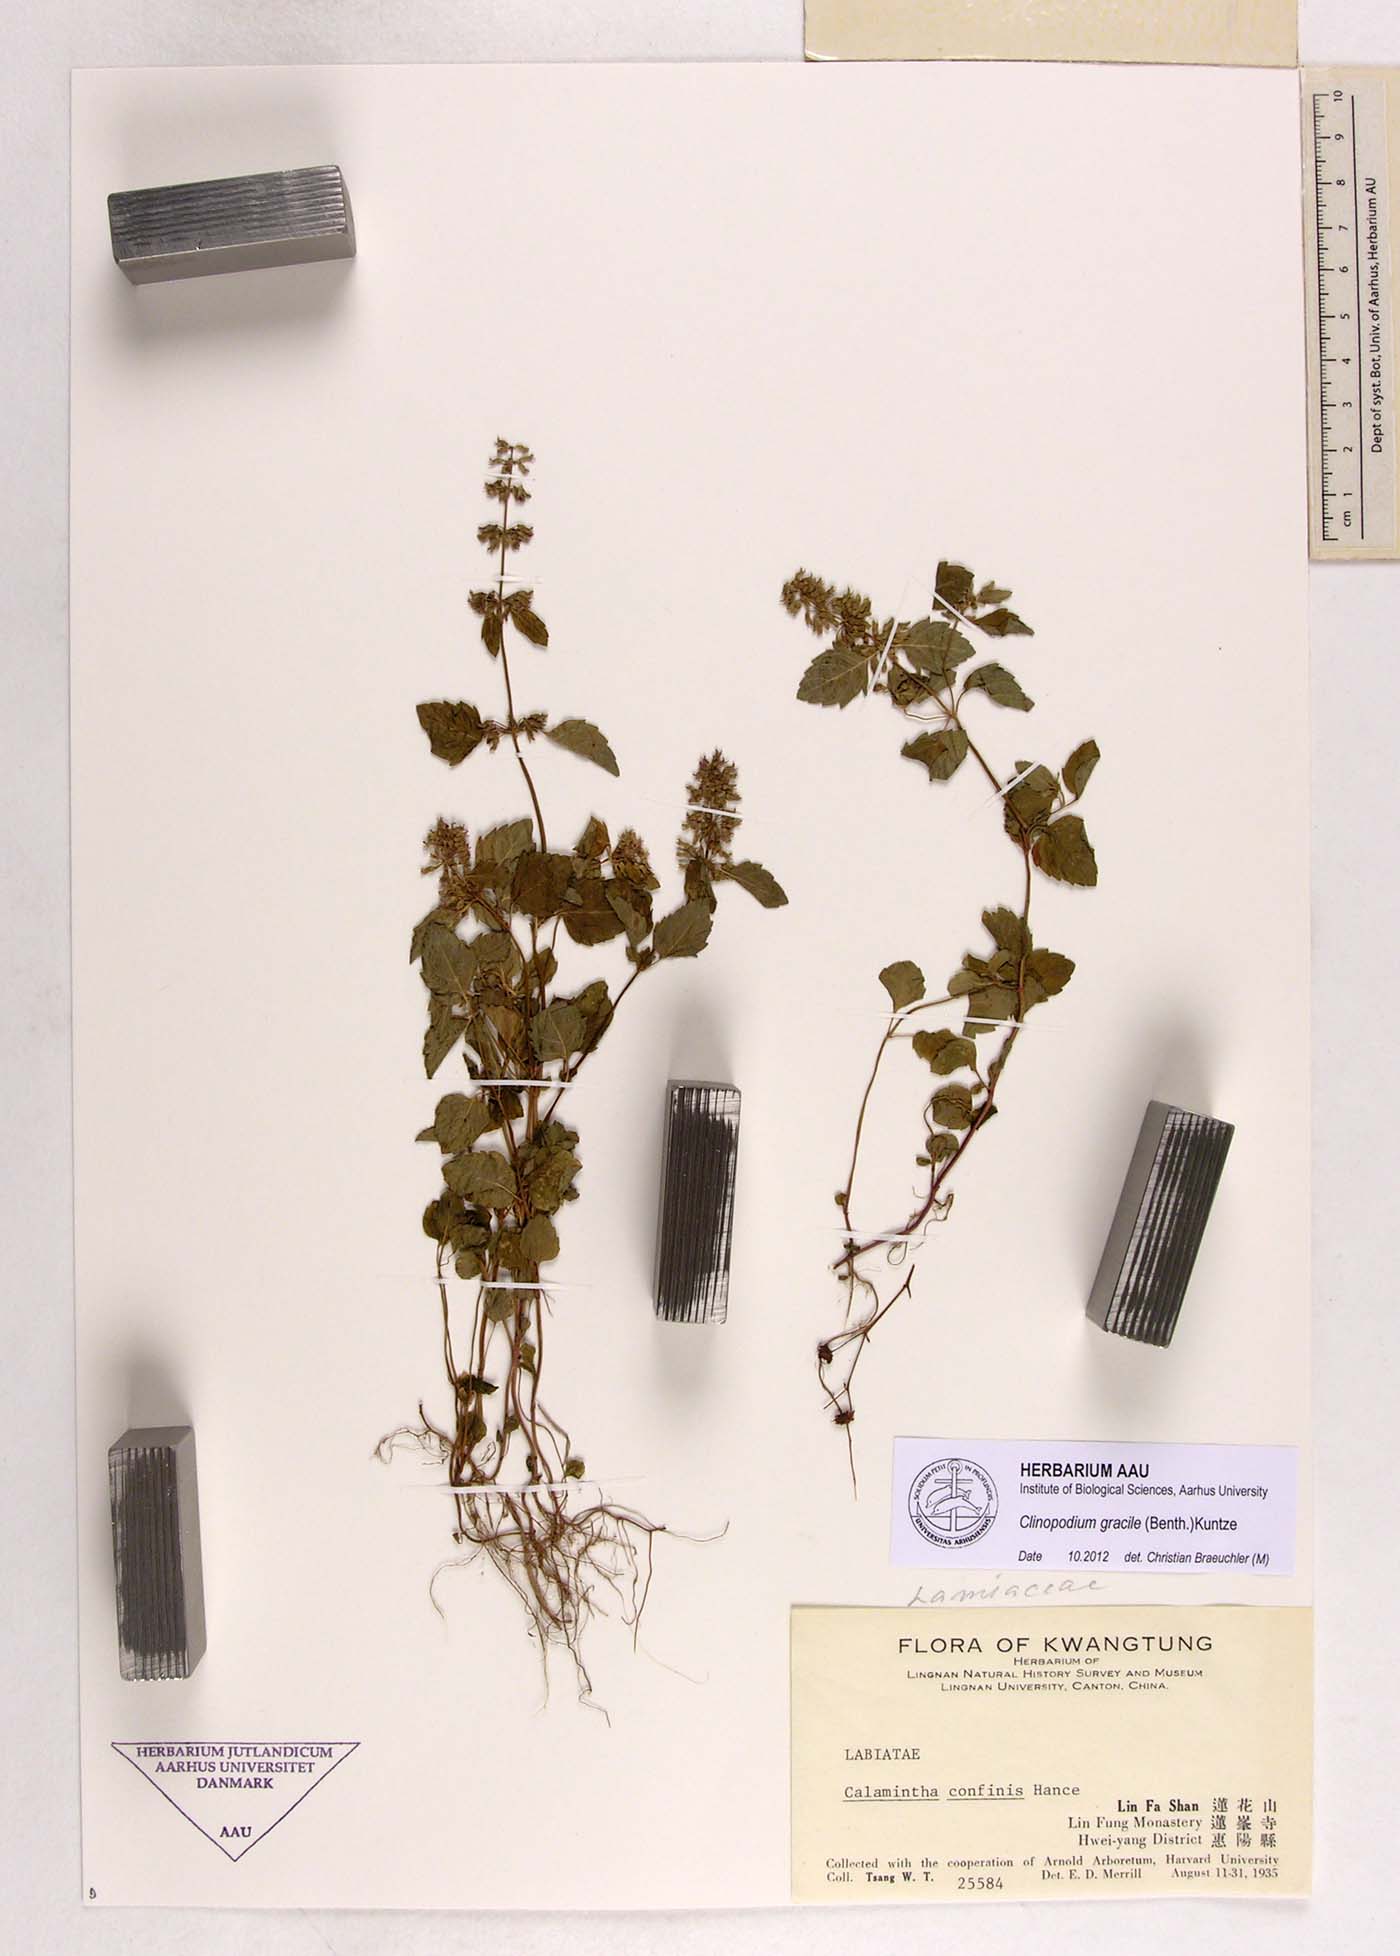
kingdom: Plantae
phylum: Tracheophyta
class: Magnoliopsida
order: Lamiales
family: Lamiaceae
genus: Clinopodium
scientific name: Clinopodium gracile
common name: Slender wild basil
